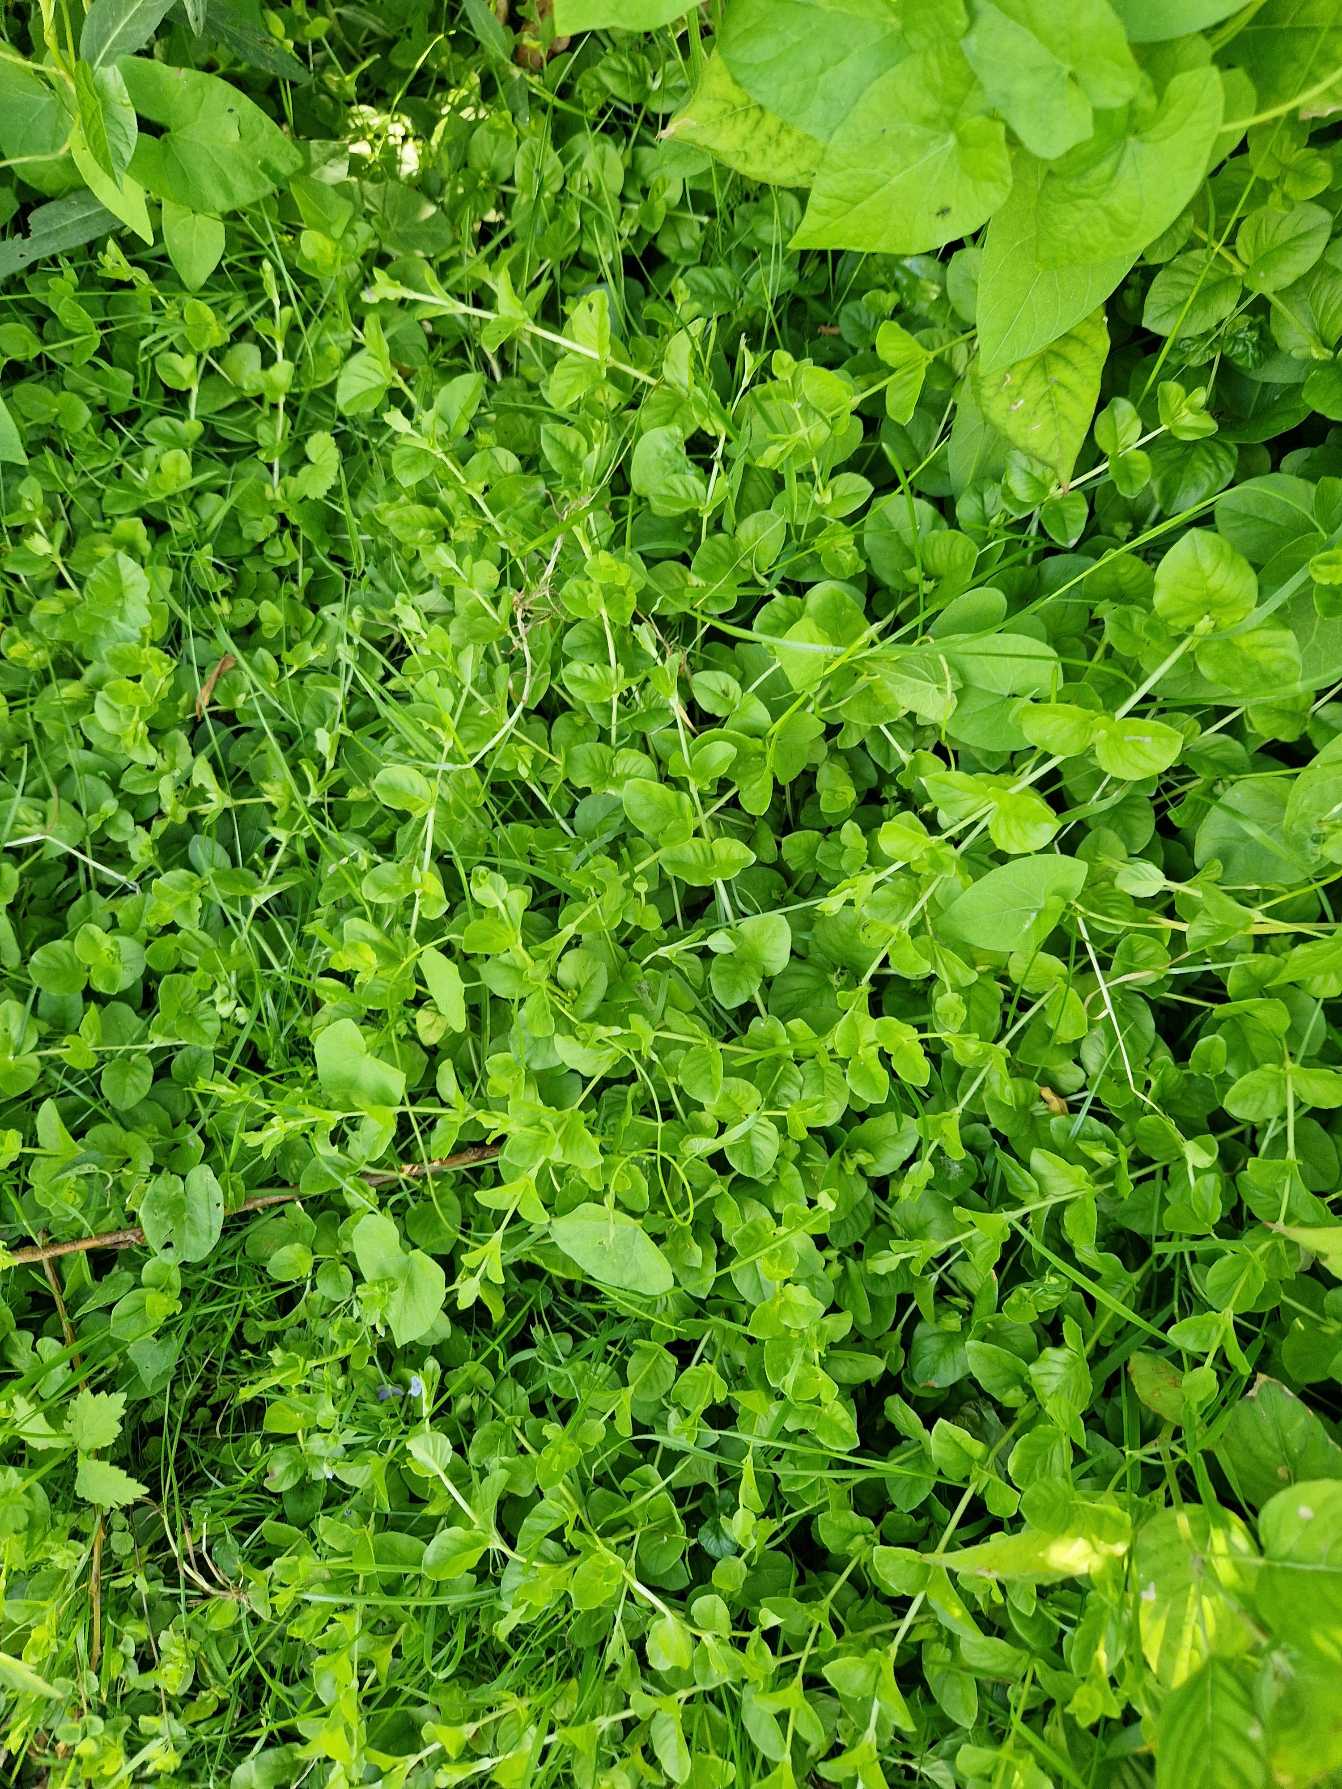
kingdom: Plantae
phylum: Tracheophyta
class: Magnoliopsida
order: Ericales
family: Primulaceae
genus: Lysimachia
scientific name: Lysimachia nummularia
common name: Pengebladet fredløs
